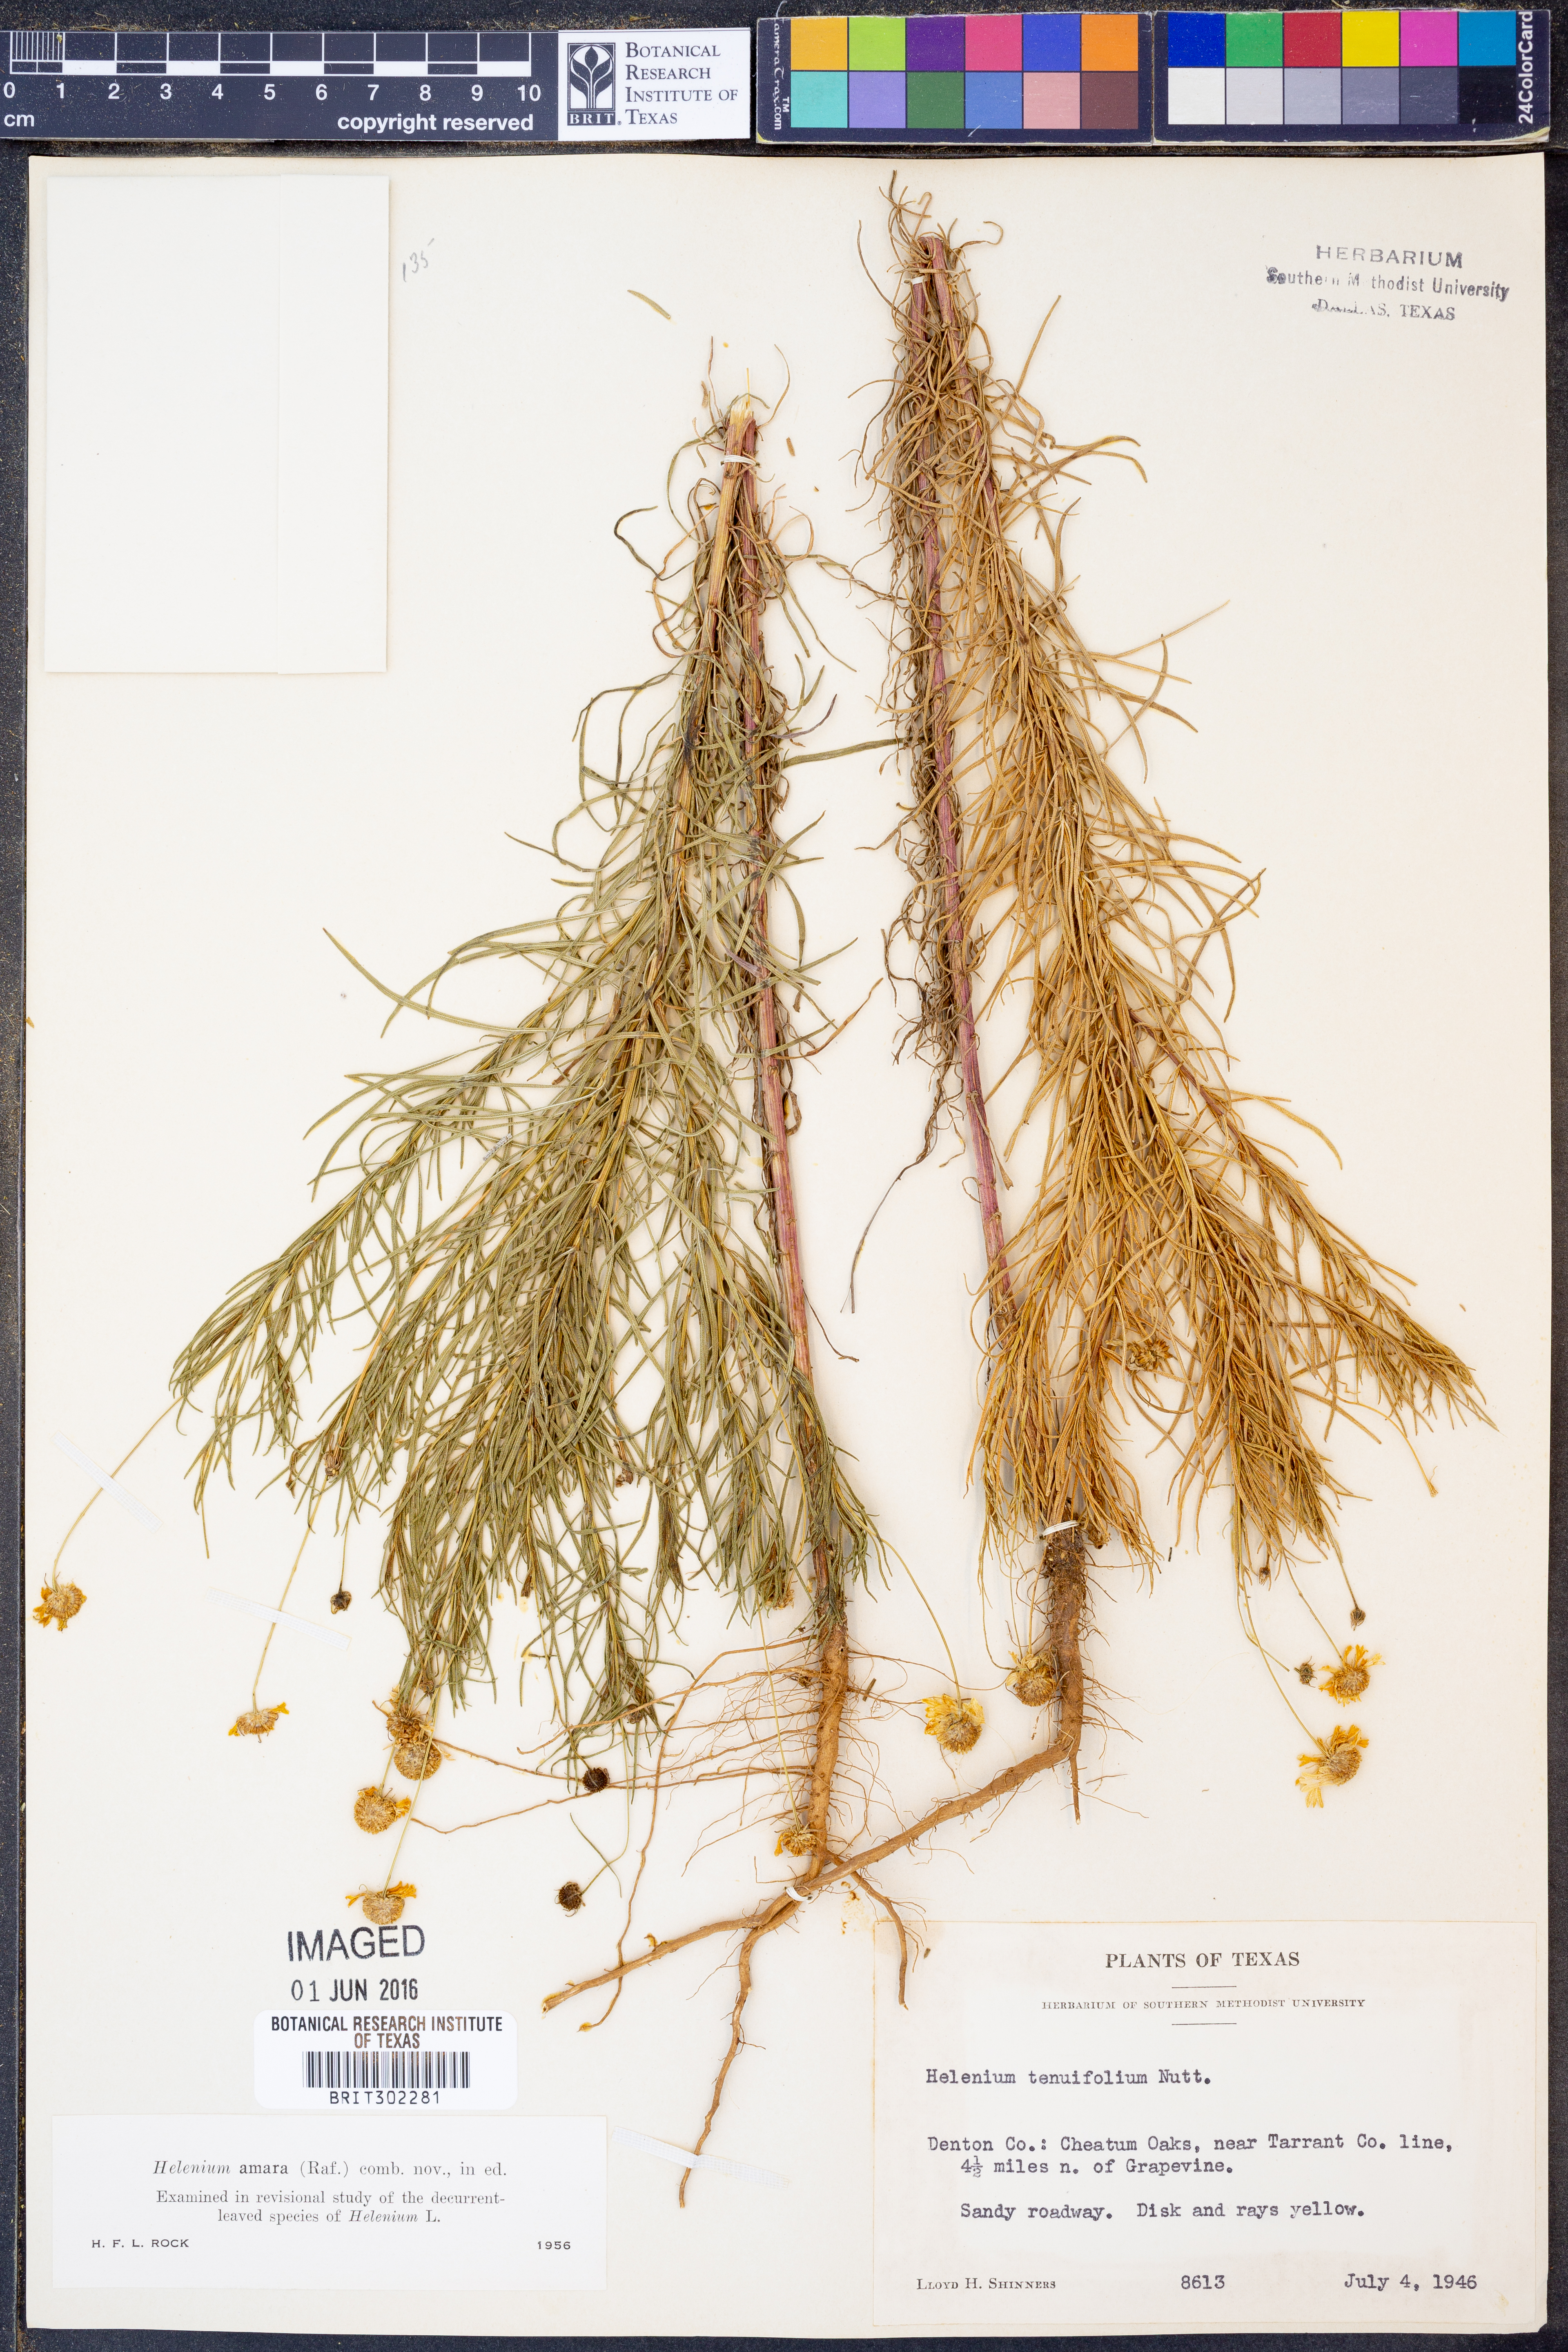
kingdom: Plantae
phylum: Tracheophyta
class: Magnoliopsida
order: Asterales
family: Asteraceae
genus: Helenium
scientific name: Helenium amarum
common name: Bitter sneezeweed
